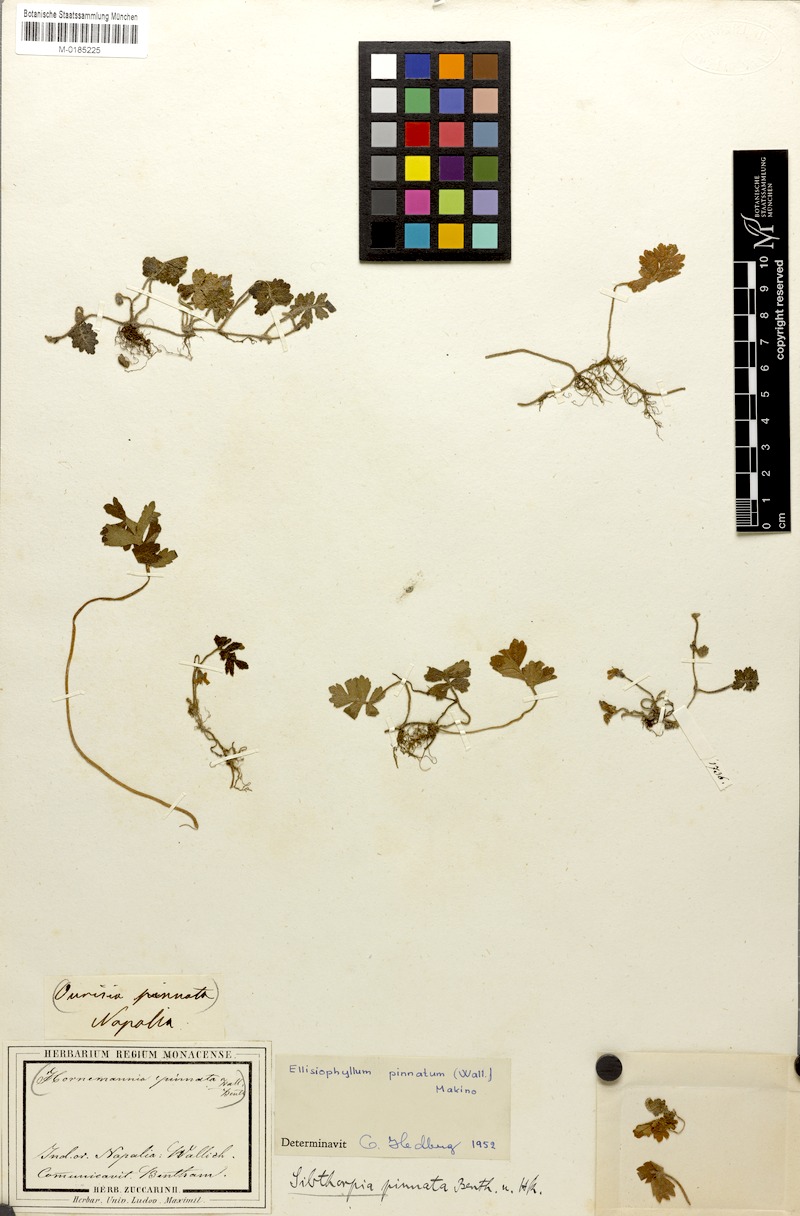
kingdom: Plantae
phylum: Tracheophyta
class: Magnoliopsida
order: Lamiales
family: Plantaginaceae
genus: Ellisiophyllum
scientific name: Ellisiophyllum pinnatum
